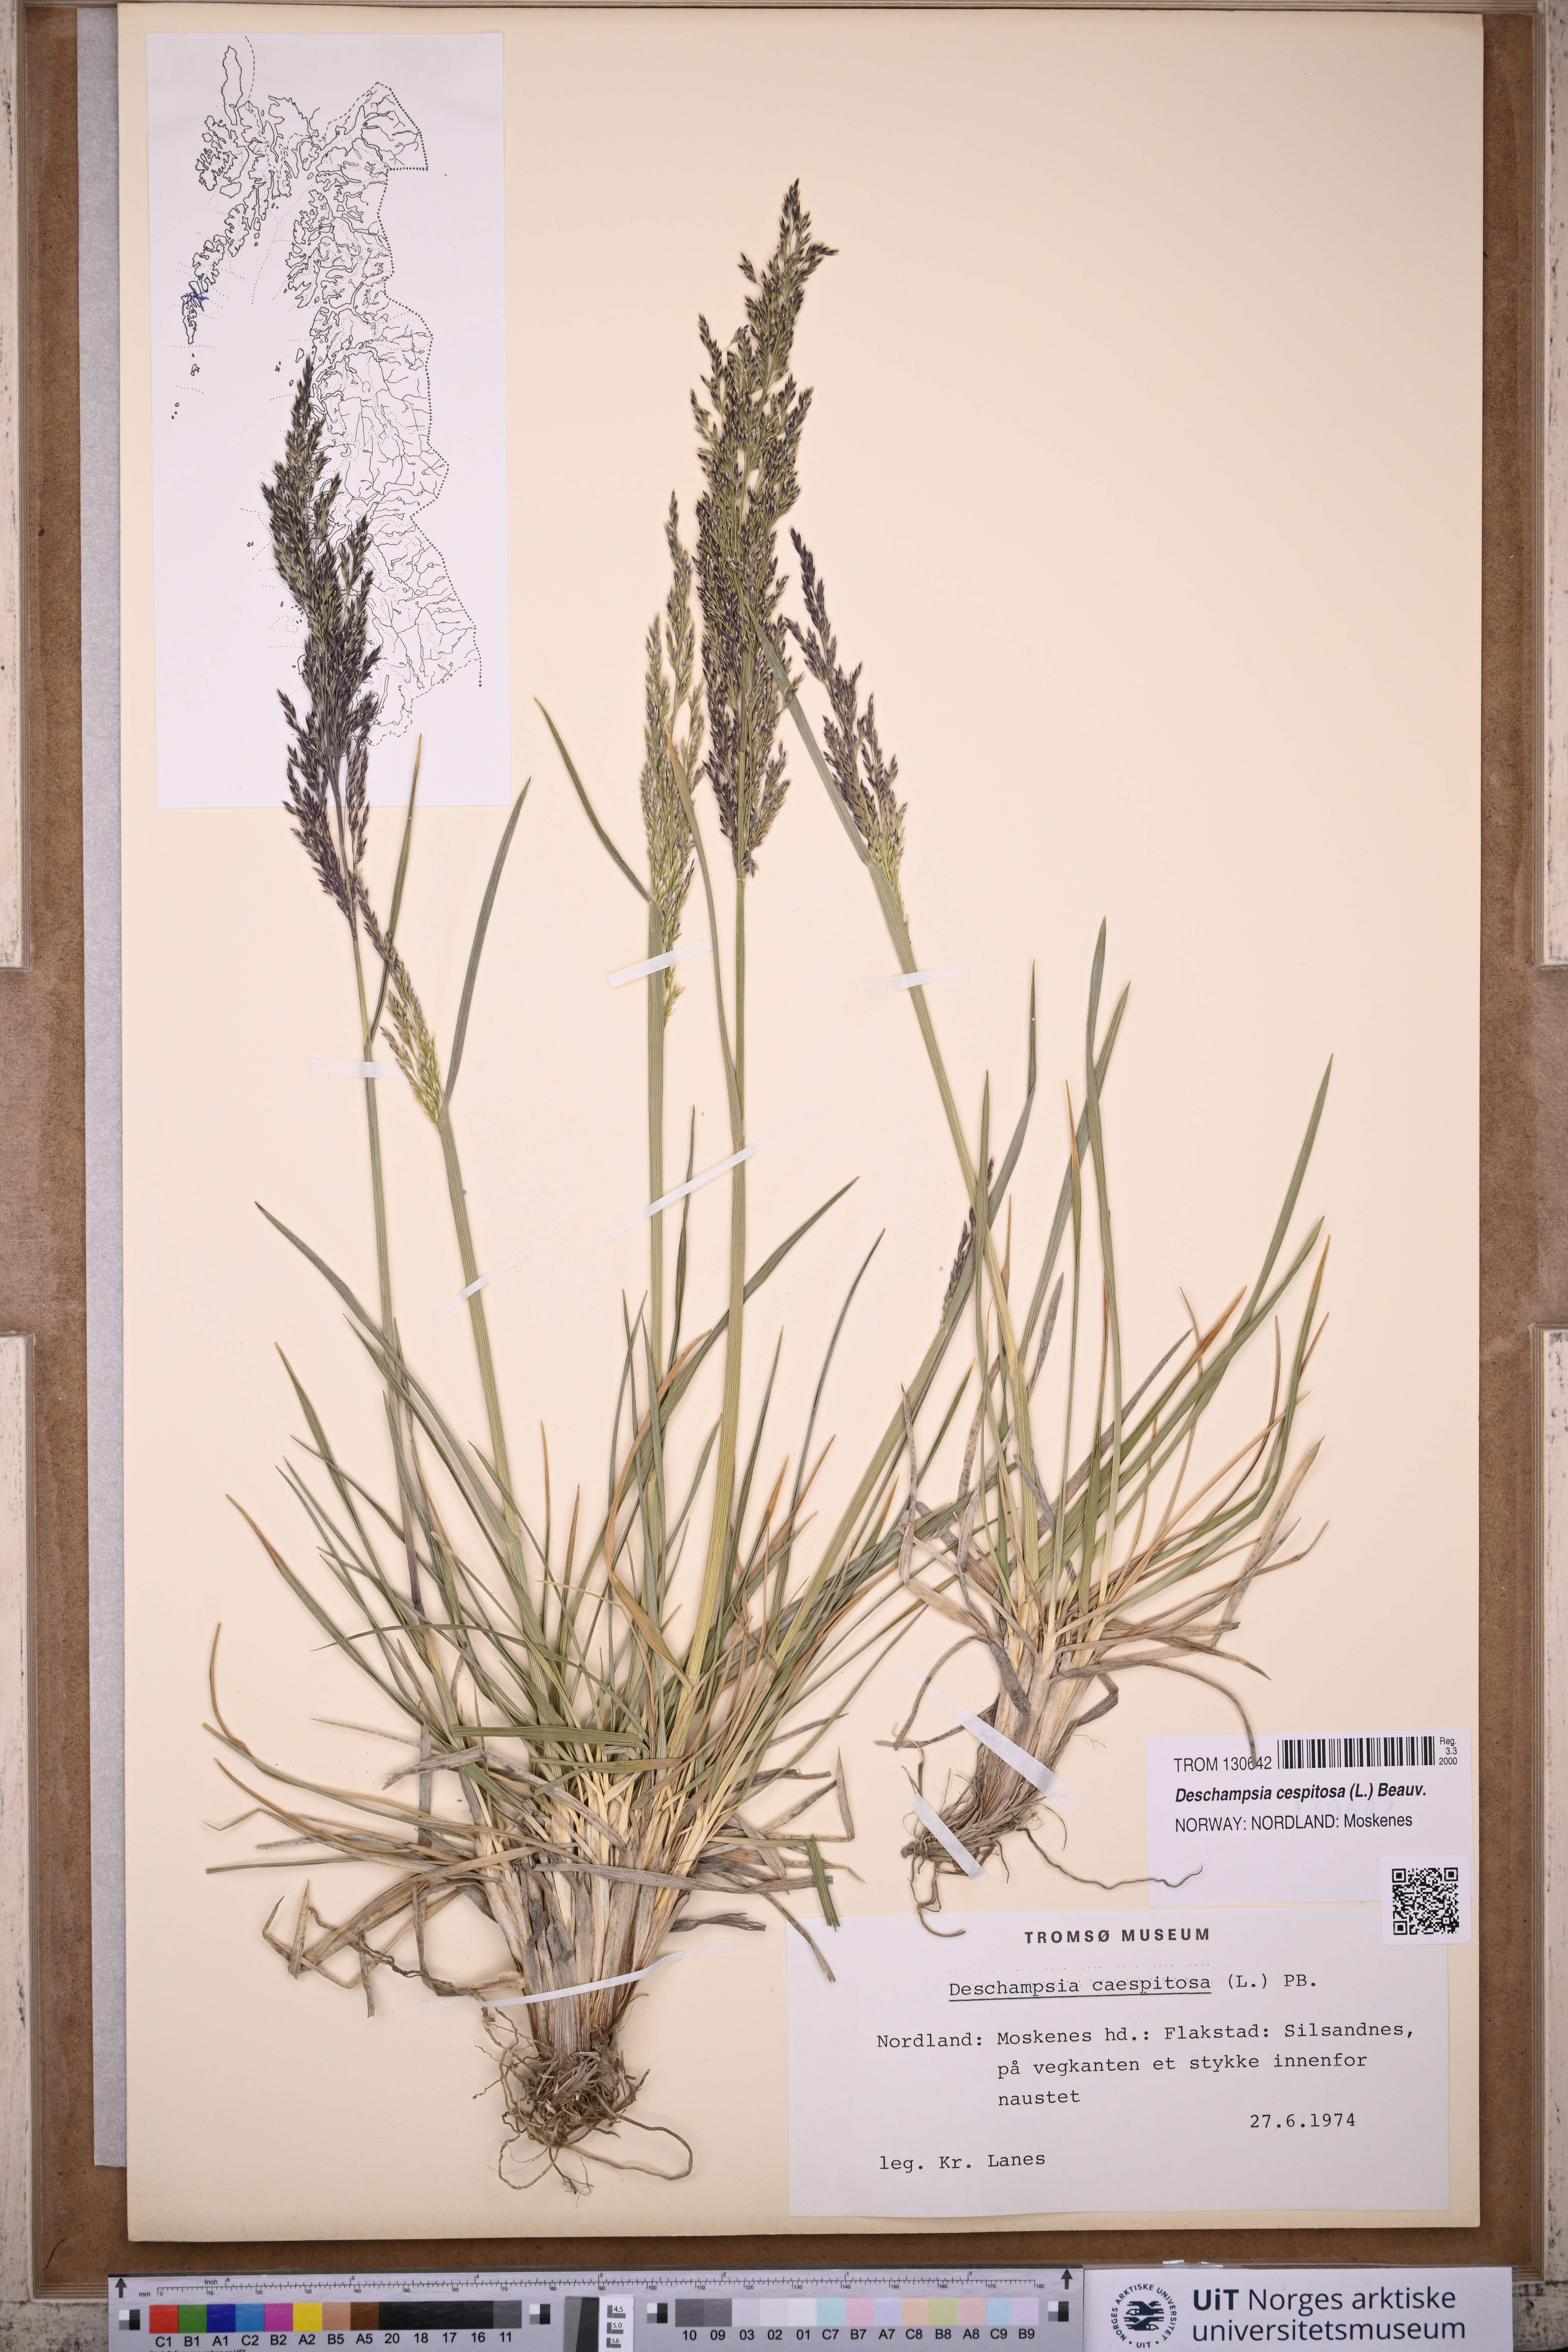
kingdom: Plantae
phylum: Tracheophyta
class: Liliopsida
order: Poales
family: Poaceae
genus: Deschampsia
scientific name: Deschampsia cespitosa
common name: Tufted hair-grass
